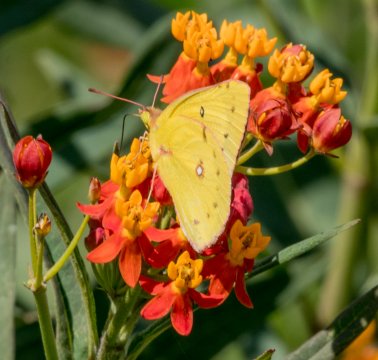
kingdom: Animalia
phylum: Arthropoda
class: Insecta
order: Lepidoptera
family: Pieridae
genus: Colias
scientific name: Colias eurytheme
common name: Orange Sulphur
